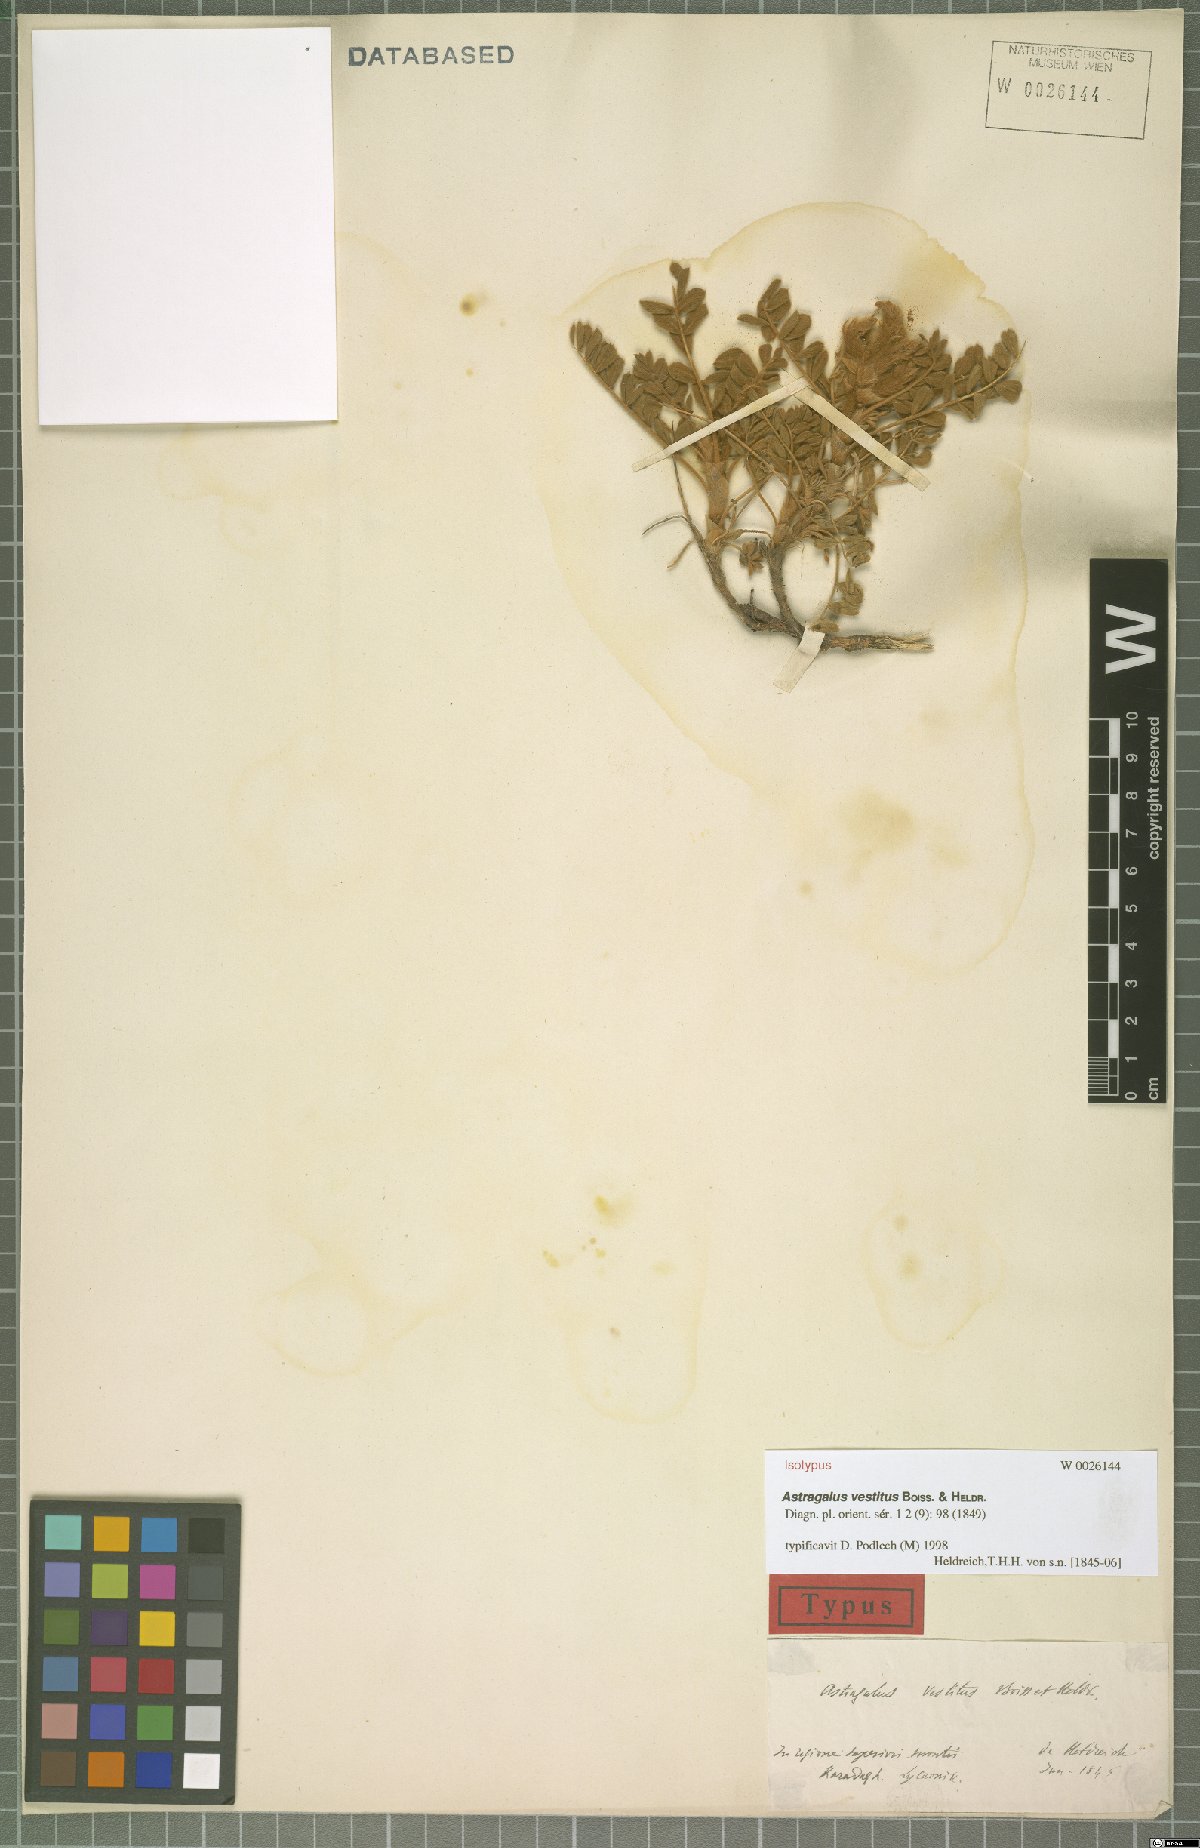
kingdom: Plantae
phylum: Tracheophyta
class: Magnoliopsida
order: Fabales
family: Fabaceae
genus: Astragalus
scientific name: Astragalus vestitus
